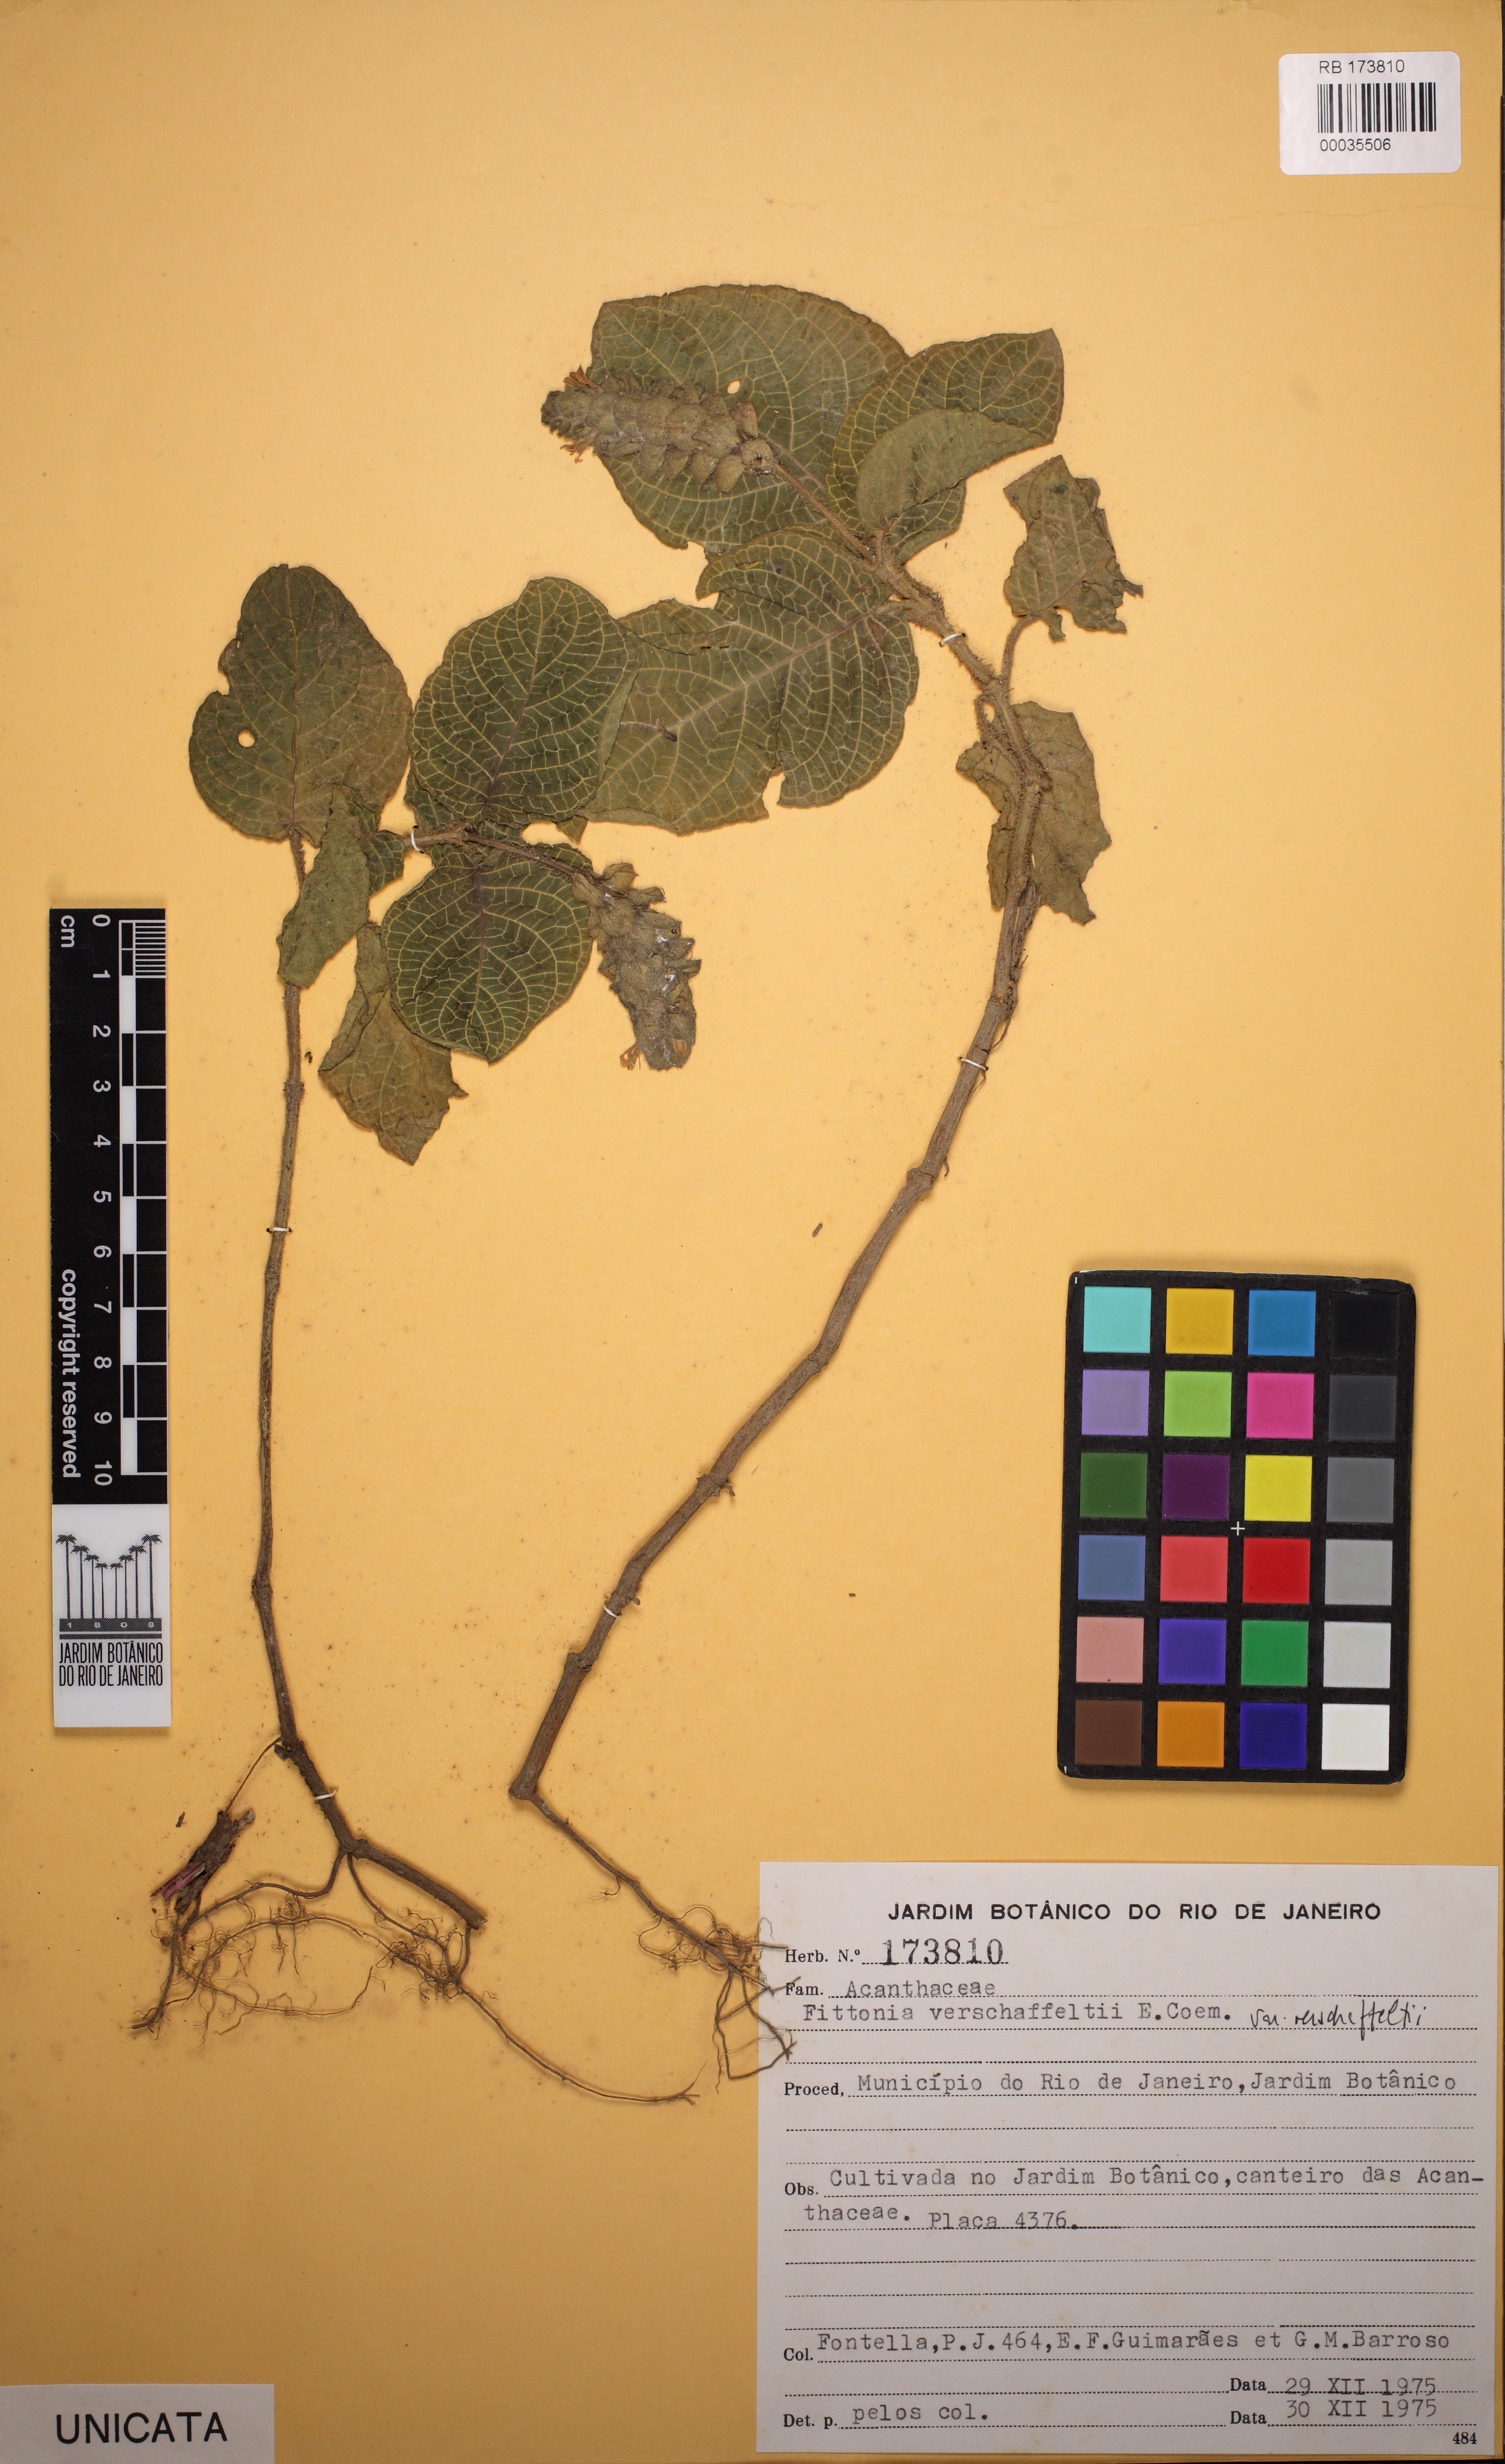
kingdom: Plantae
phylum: Tracheophyta
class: Magnoliopsida
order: Lamiales
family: Acanthaceae
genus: Fittonia
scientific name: Fittonia albivenis
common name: Mosaic-plant
